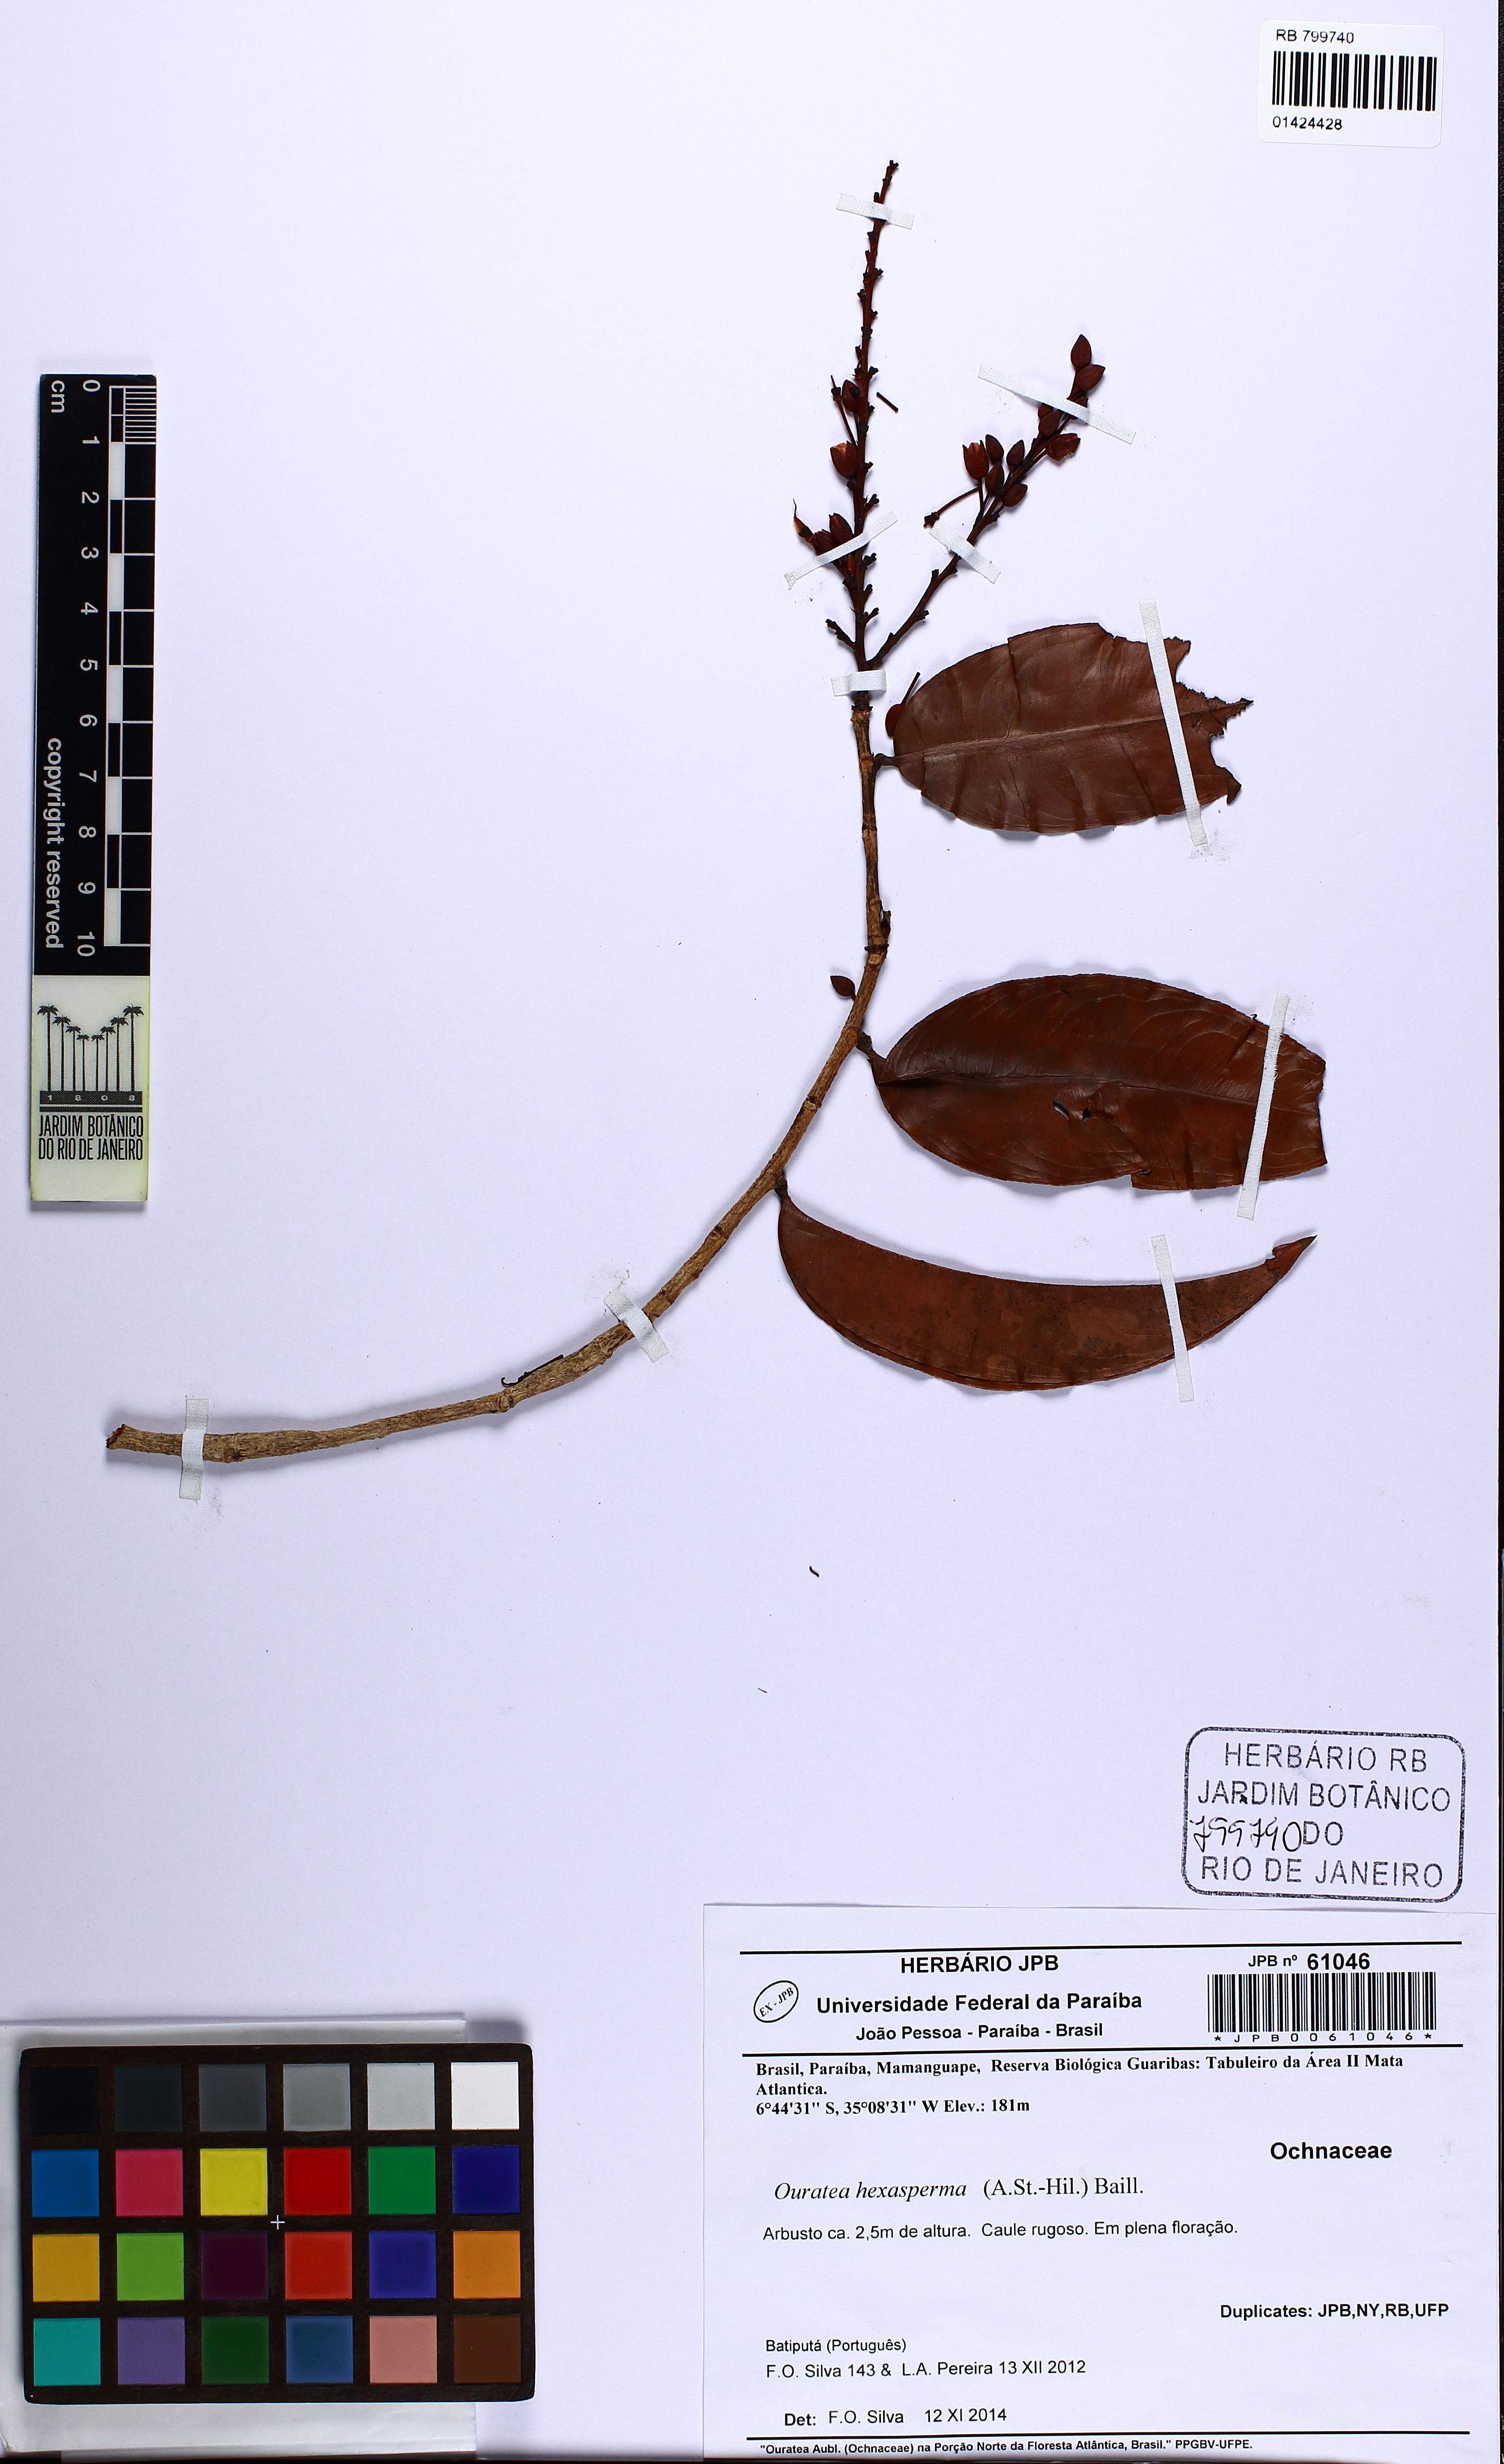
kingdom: Plantae
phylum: Tracheophyta
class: Magnoliopsida
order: Malpighiales
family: Ochnaceae
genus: Ouratea
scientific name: Ouratea hexasperma
